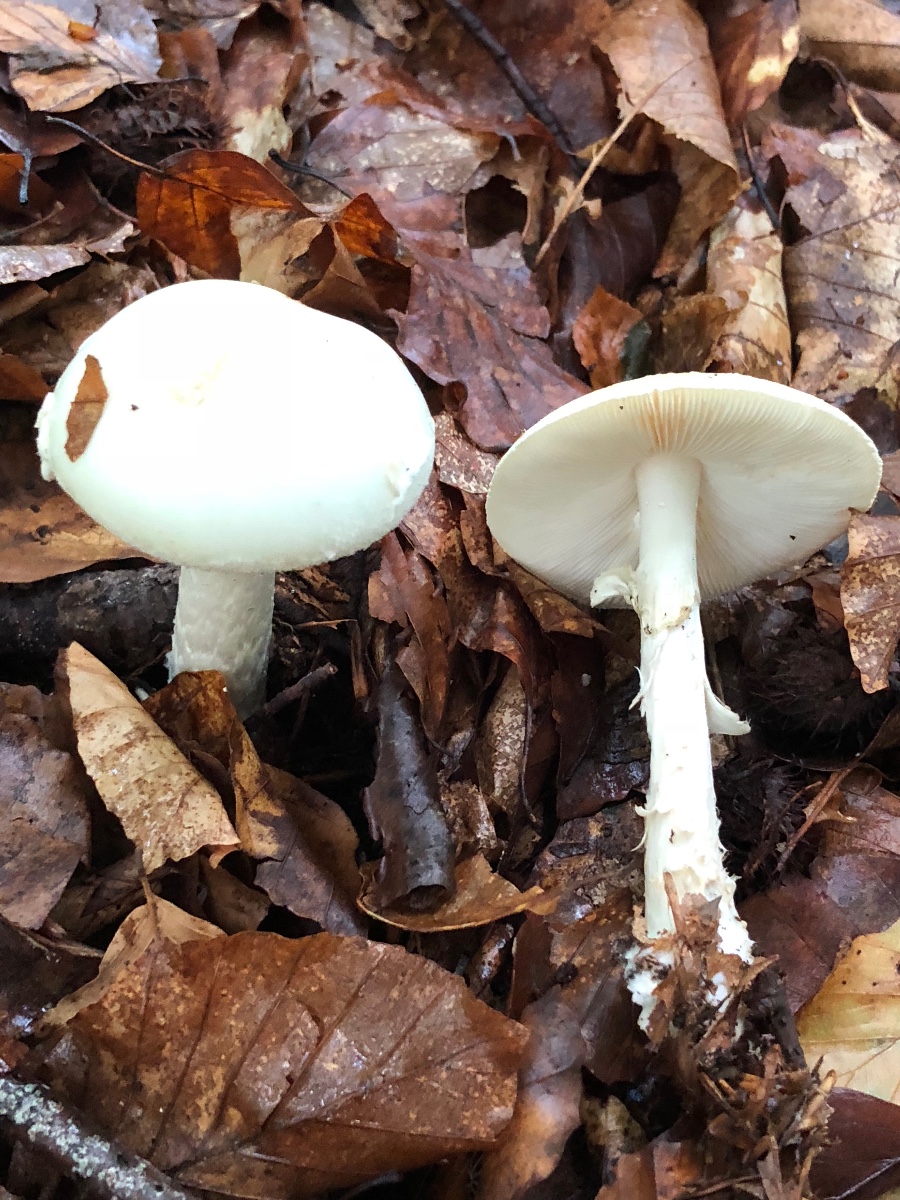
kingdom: Fungi
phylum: Basidiomycota
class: Agaricomycetes
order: Agaricales
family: Amanitaceae
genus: Amanita
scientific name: Amanita citrina
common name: kugleknoldet fluesvamp
